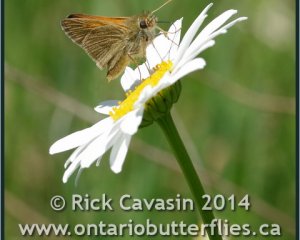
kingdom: Animalia
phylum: Arthropoda
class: Insecta
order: Lepidoptera
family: Hesperiidae
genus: Polites
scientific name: Polites themistocles
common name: Tawny-edged Skipper
